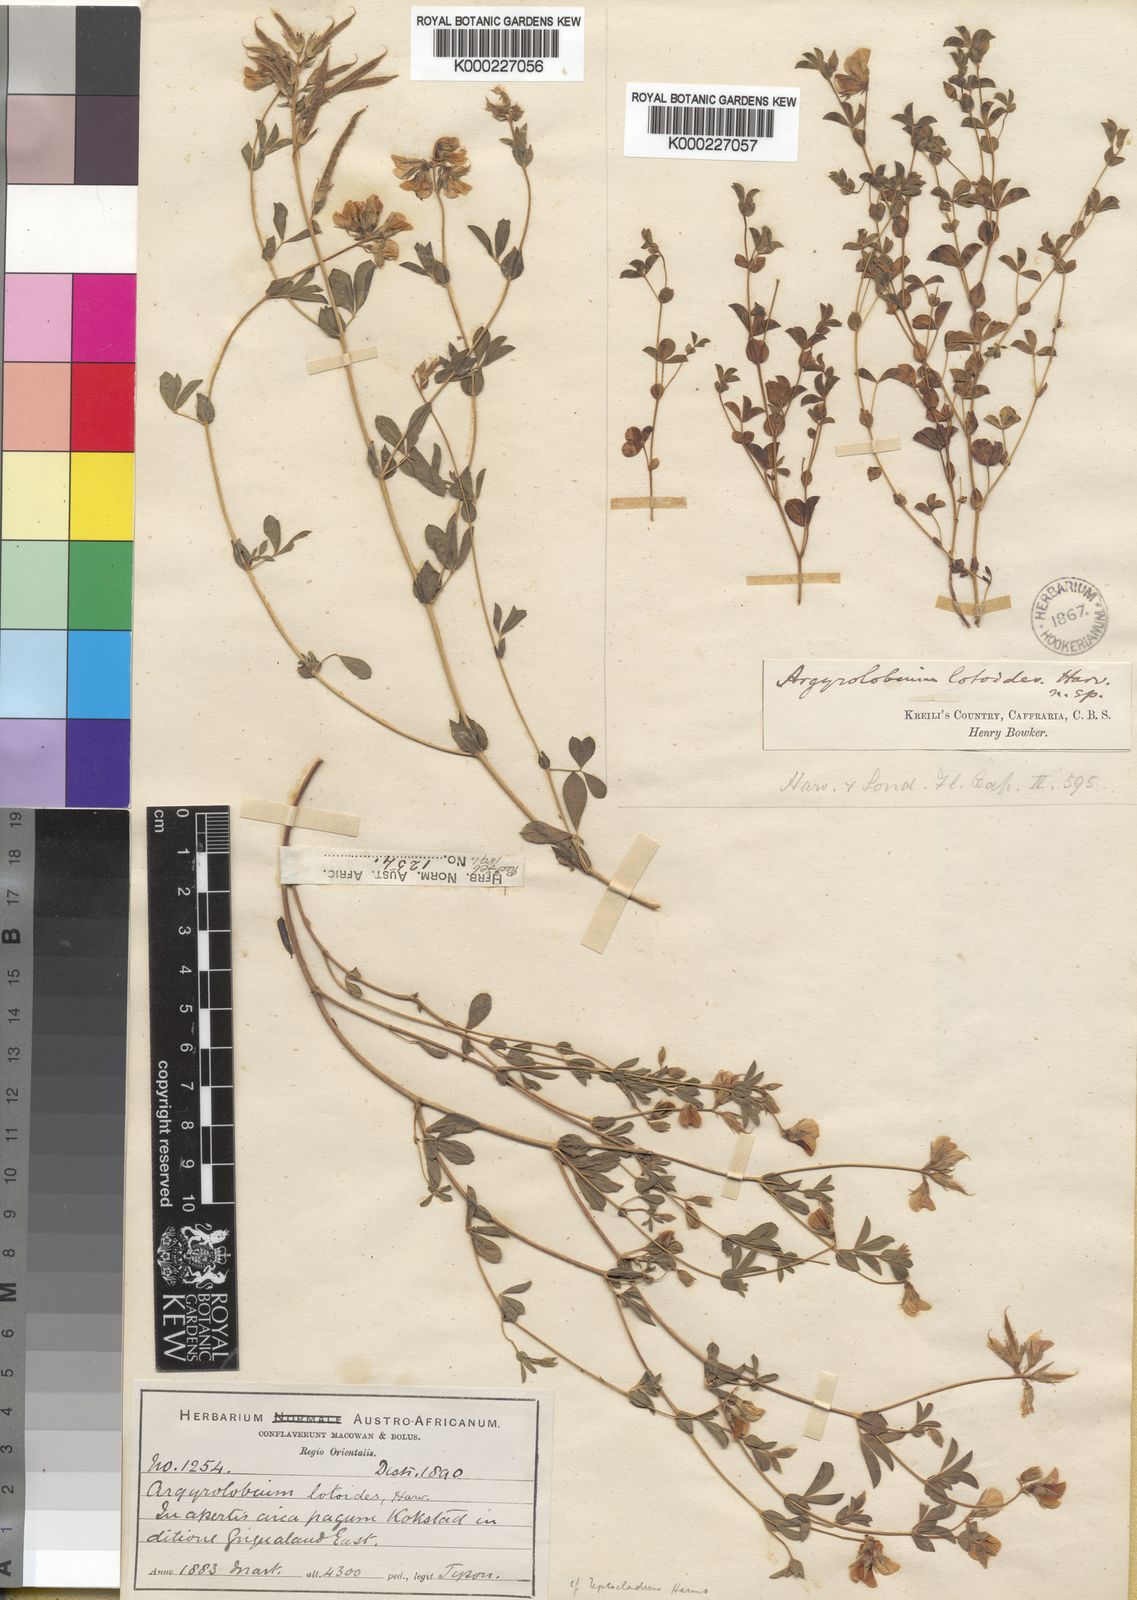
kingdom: Plantae
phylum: Tracheophyta
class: Magnoliopsida
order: Fabales
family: Fabaceae
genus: Argyrolobium
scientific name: Argyrolobium lotoides
